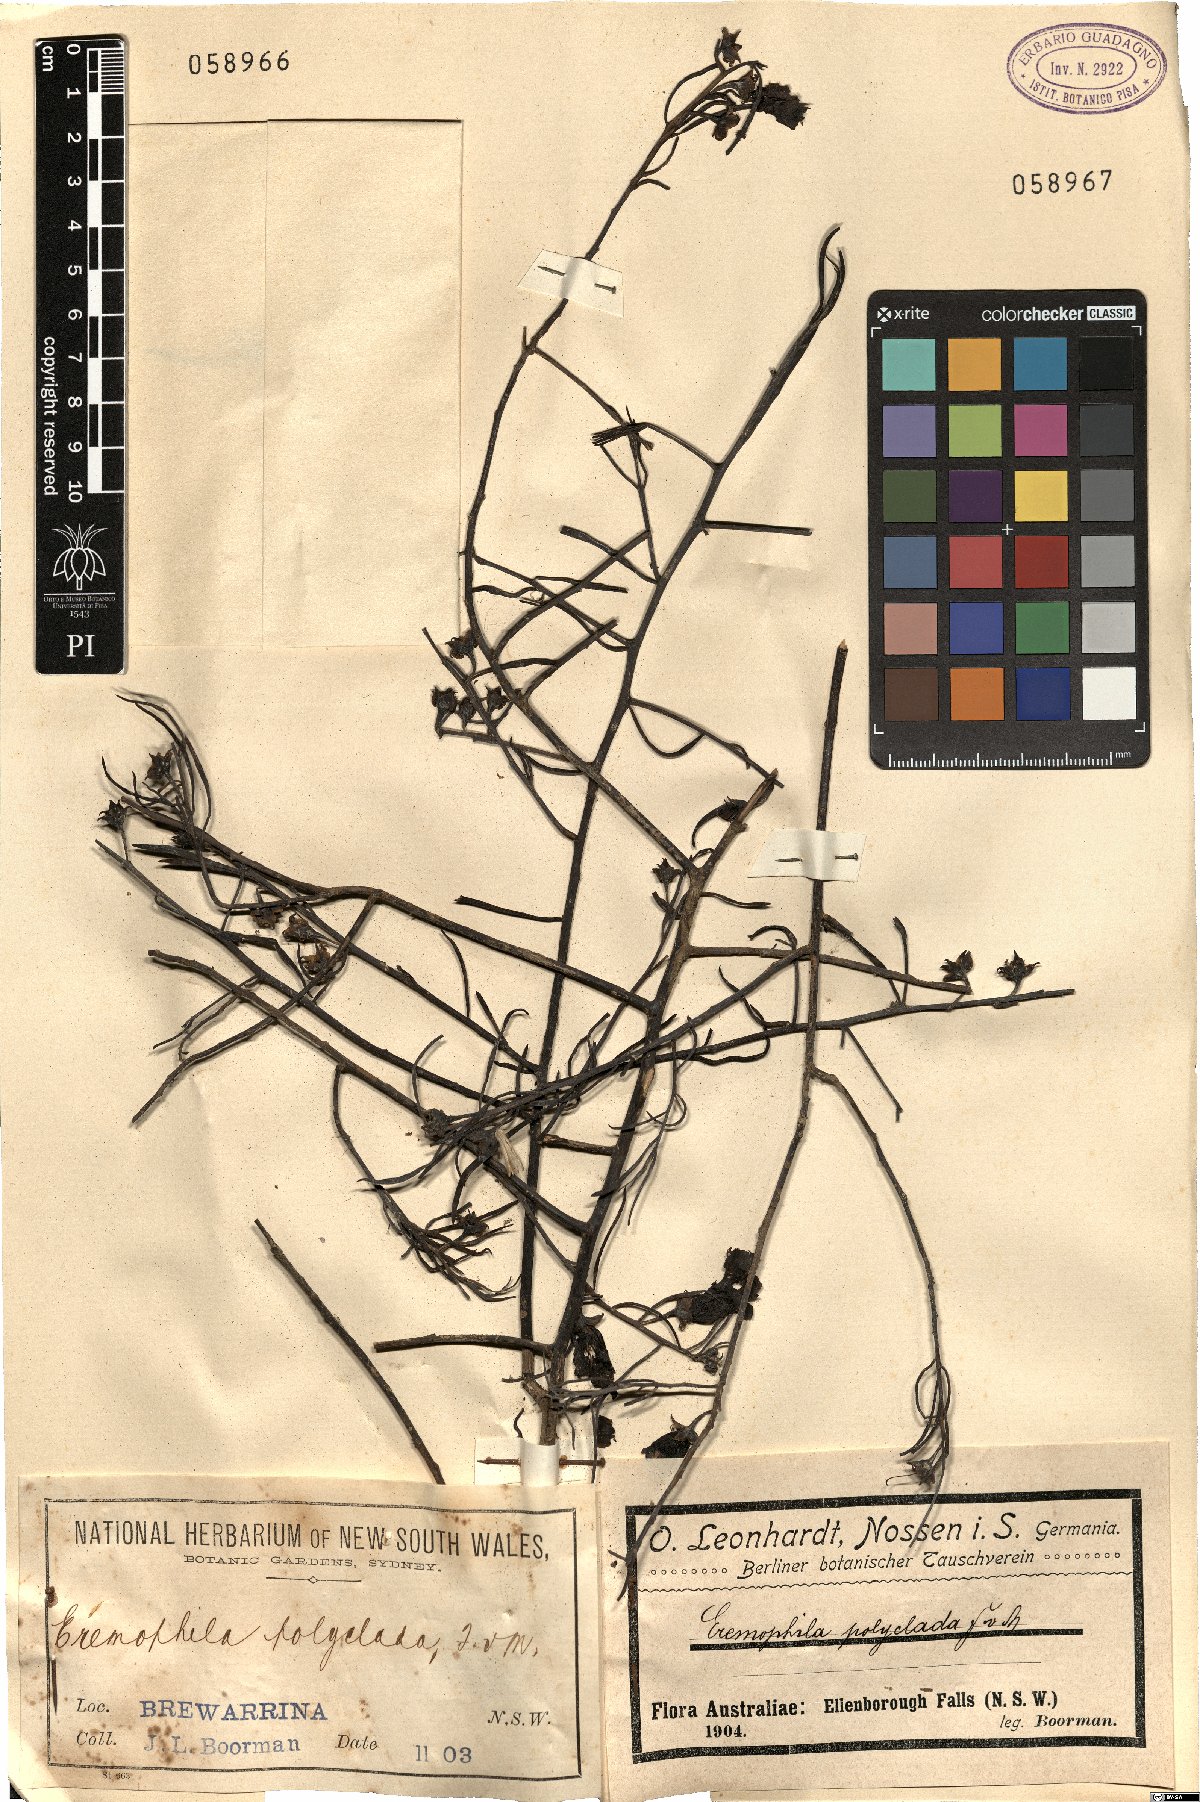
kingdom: Plantae
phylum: Tracheophyta
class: Magnoliopsida
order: Lamiales
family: Scrophulariaceae
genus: Eremophila
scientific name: Eremophila polyclada
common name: Lignum-fuchsia
